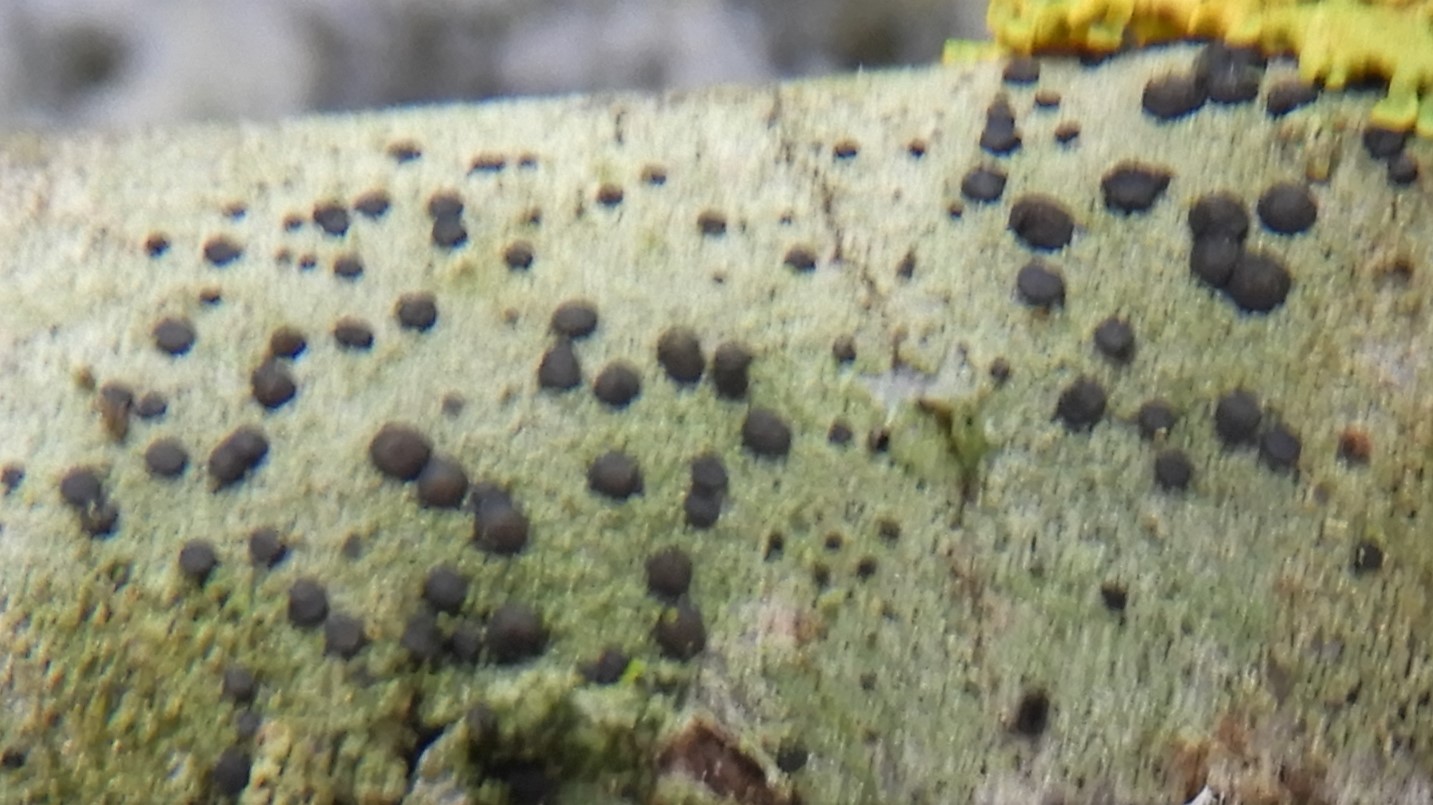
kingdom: Fungi
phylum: Ascomycota
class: Lecanoromycetes
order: Lecanorales
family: Lecanoraceae
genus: Lecidella
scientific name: Lecidella elaeochroma
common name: grågrøn skivelav
